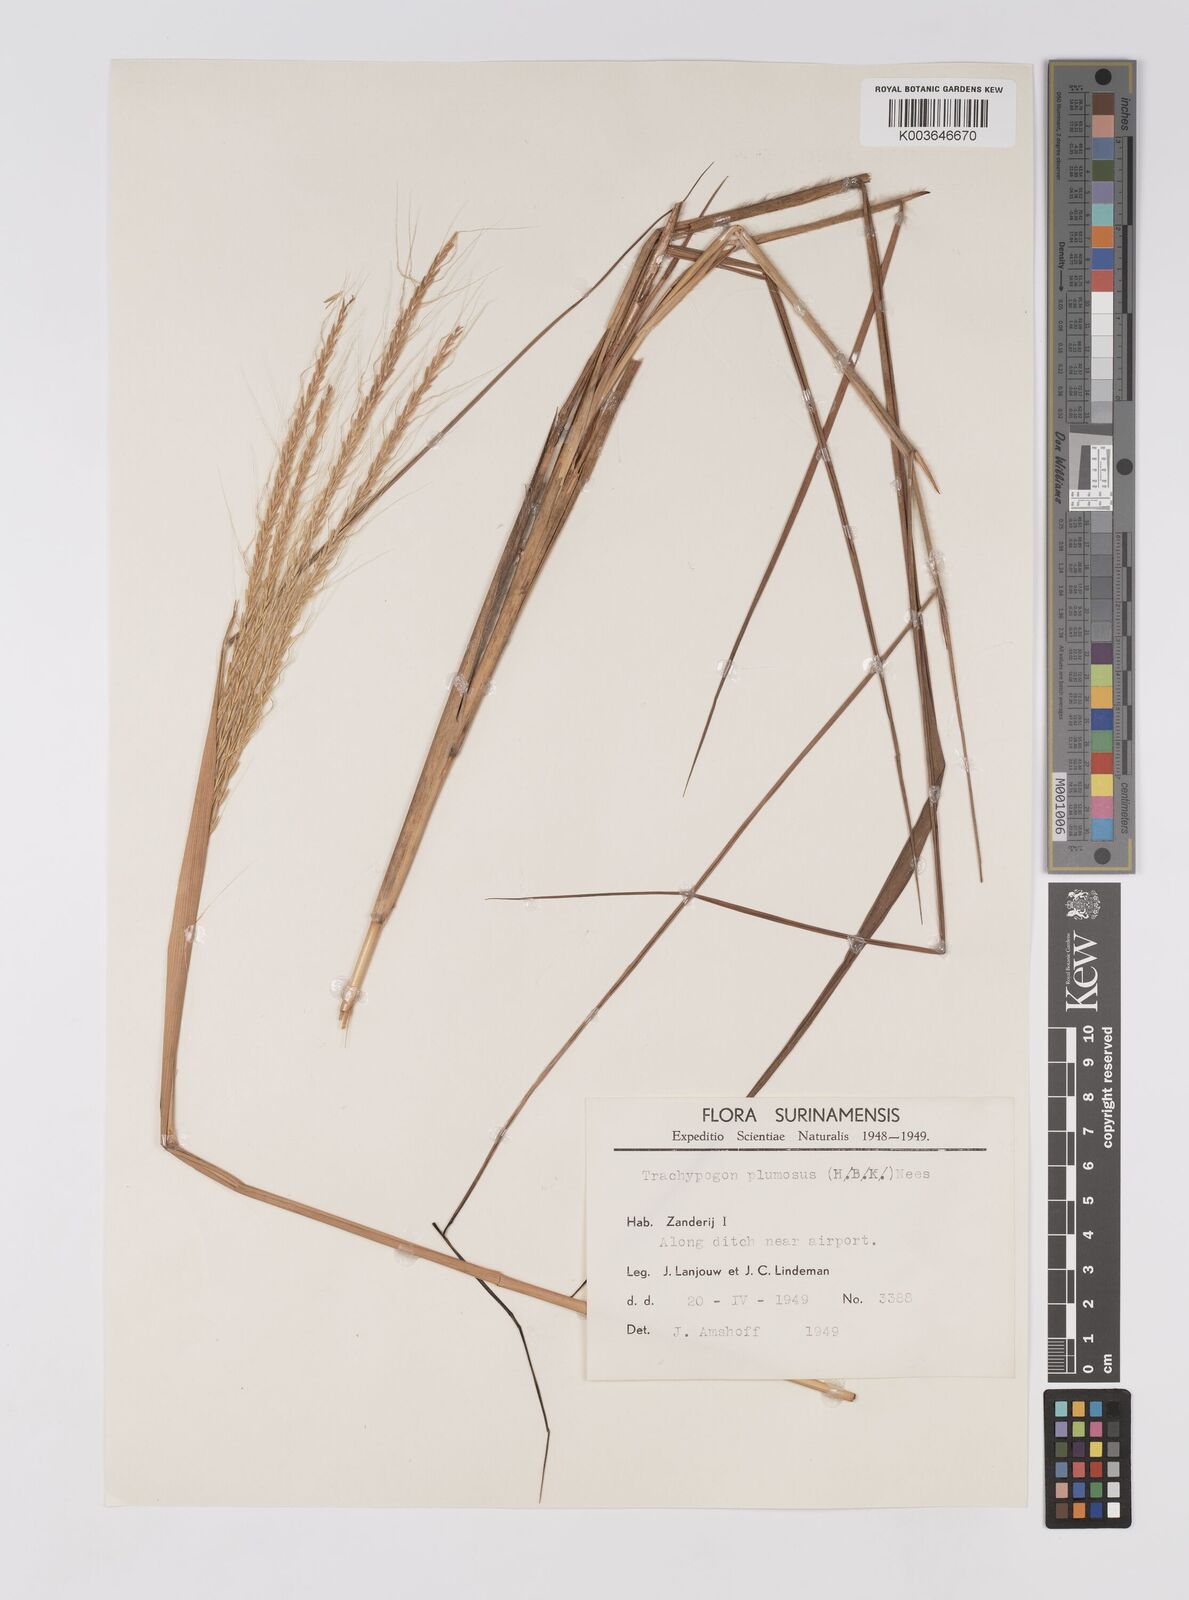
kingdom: Plantae
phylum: Tracheophyta
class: Liliopsida
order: Poales
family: Poaceae
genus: Trachypogon
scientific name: Trachypogon spicatus
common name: Crinkle-awn
